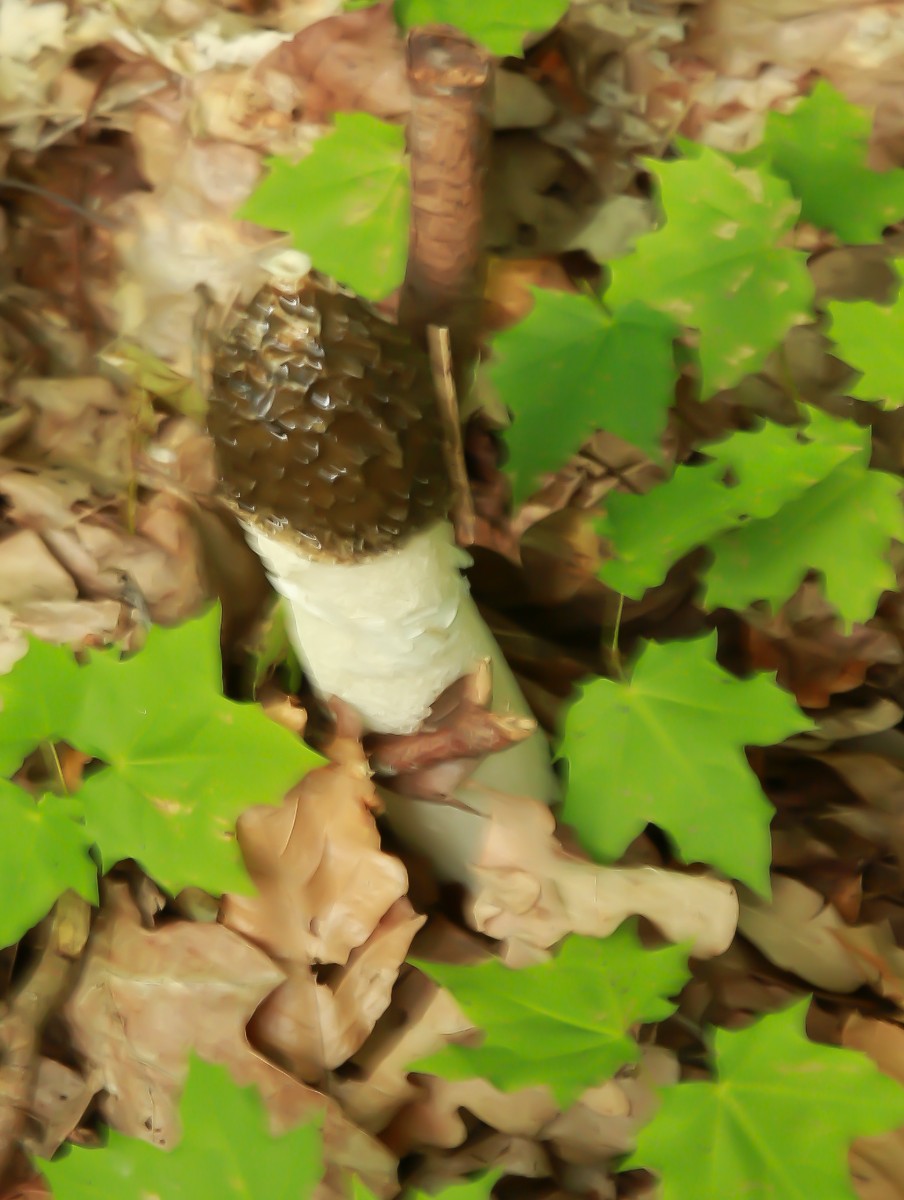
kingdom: Fungi
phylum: Basidiomycota
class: Agaricomycetes
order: Phallales
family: Phallaceae
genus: Phallus
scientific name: Phallus impudicus
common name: almindelig stinksvamp
